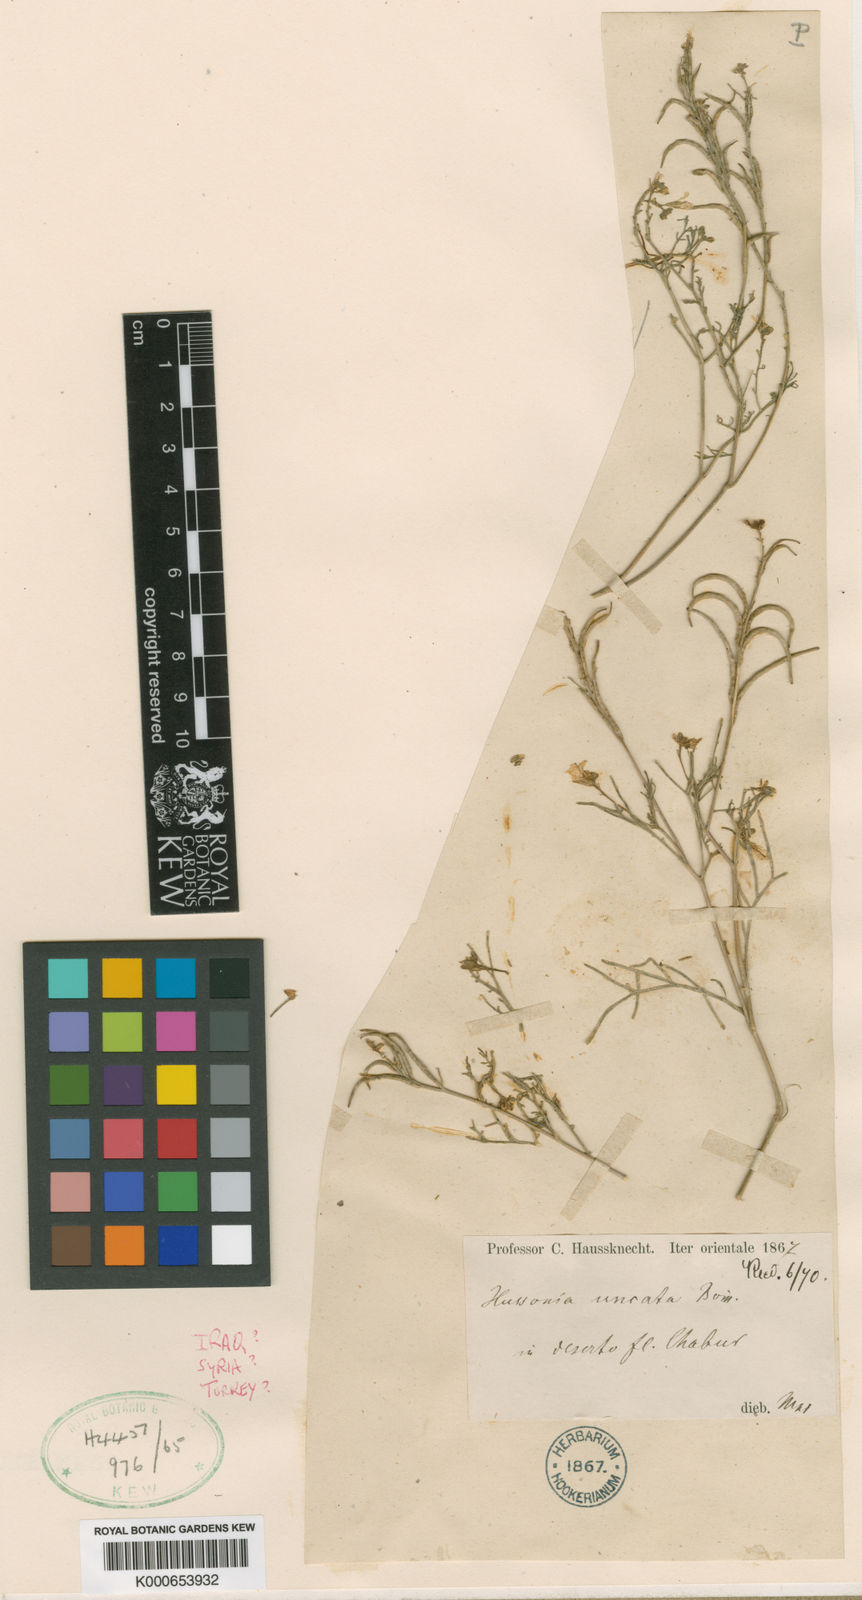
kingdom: Plantae
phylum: Tracheophyta
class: Magnoliopsida
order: Brassicales
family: Brassicaceae
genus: Erucaria
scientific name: Erucaria bornmuelleri
